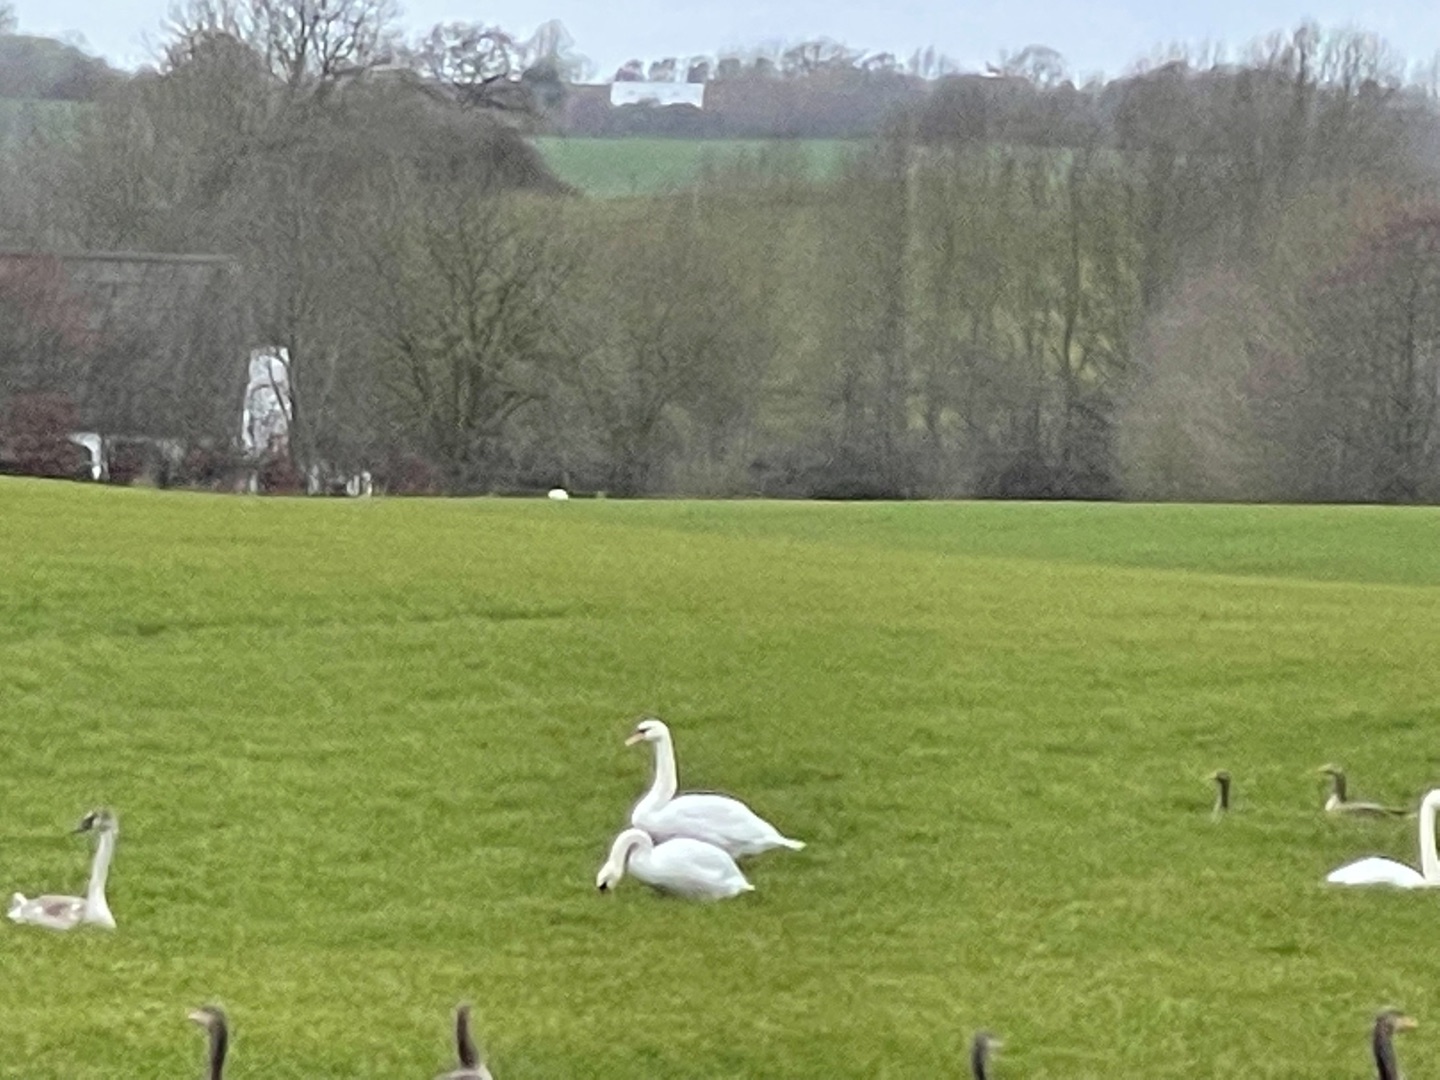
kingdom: Animalia
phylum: Chordata
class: Aves
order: Anseriformes
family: Anatidae
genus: Cygnus
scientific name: Cygnus olor
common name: Knopsvane
